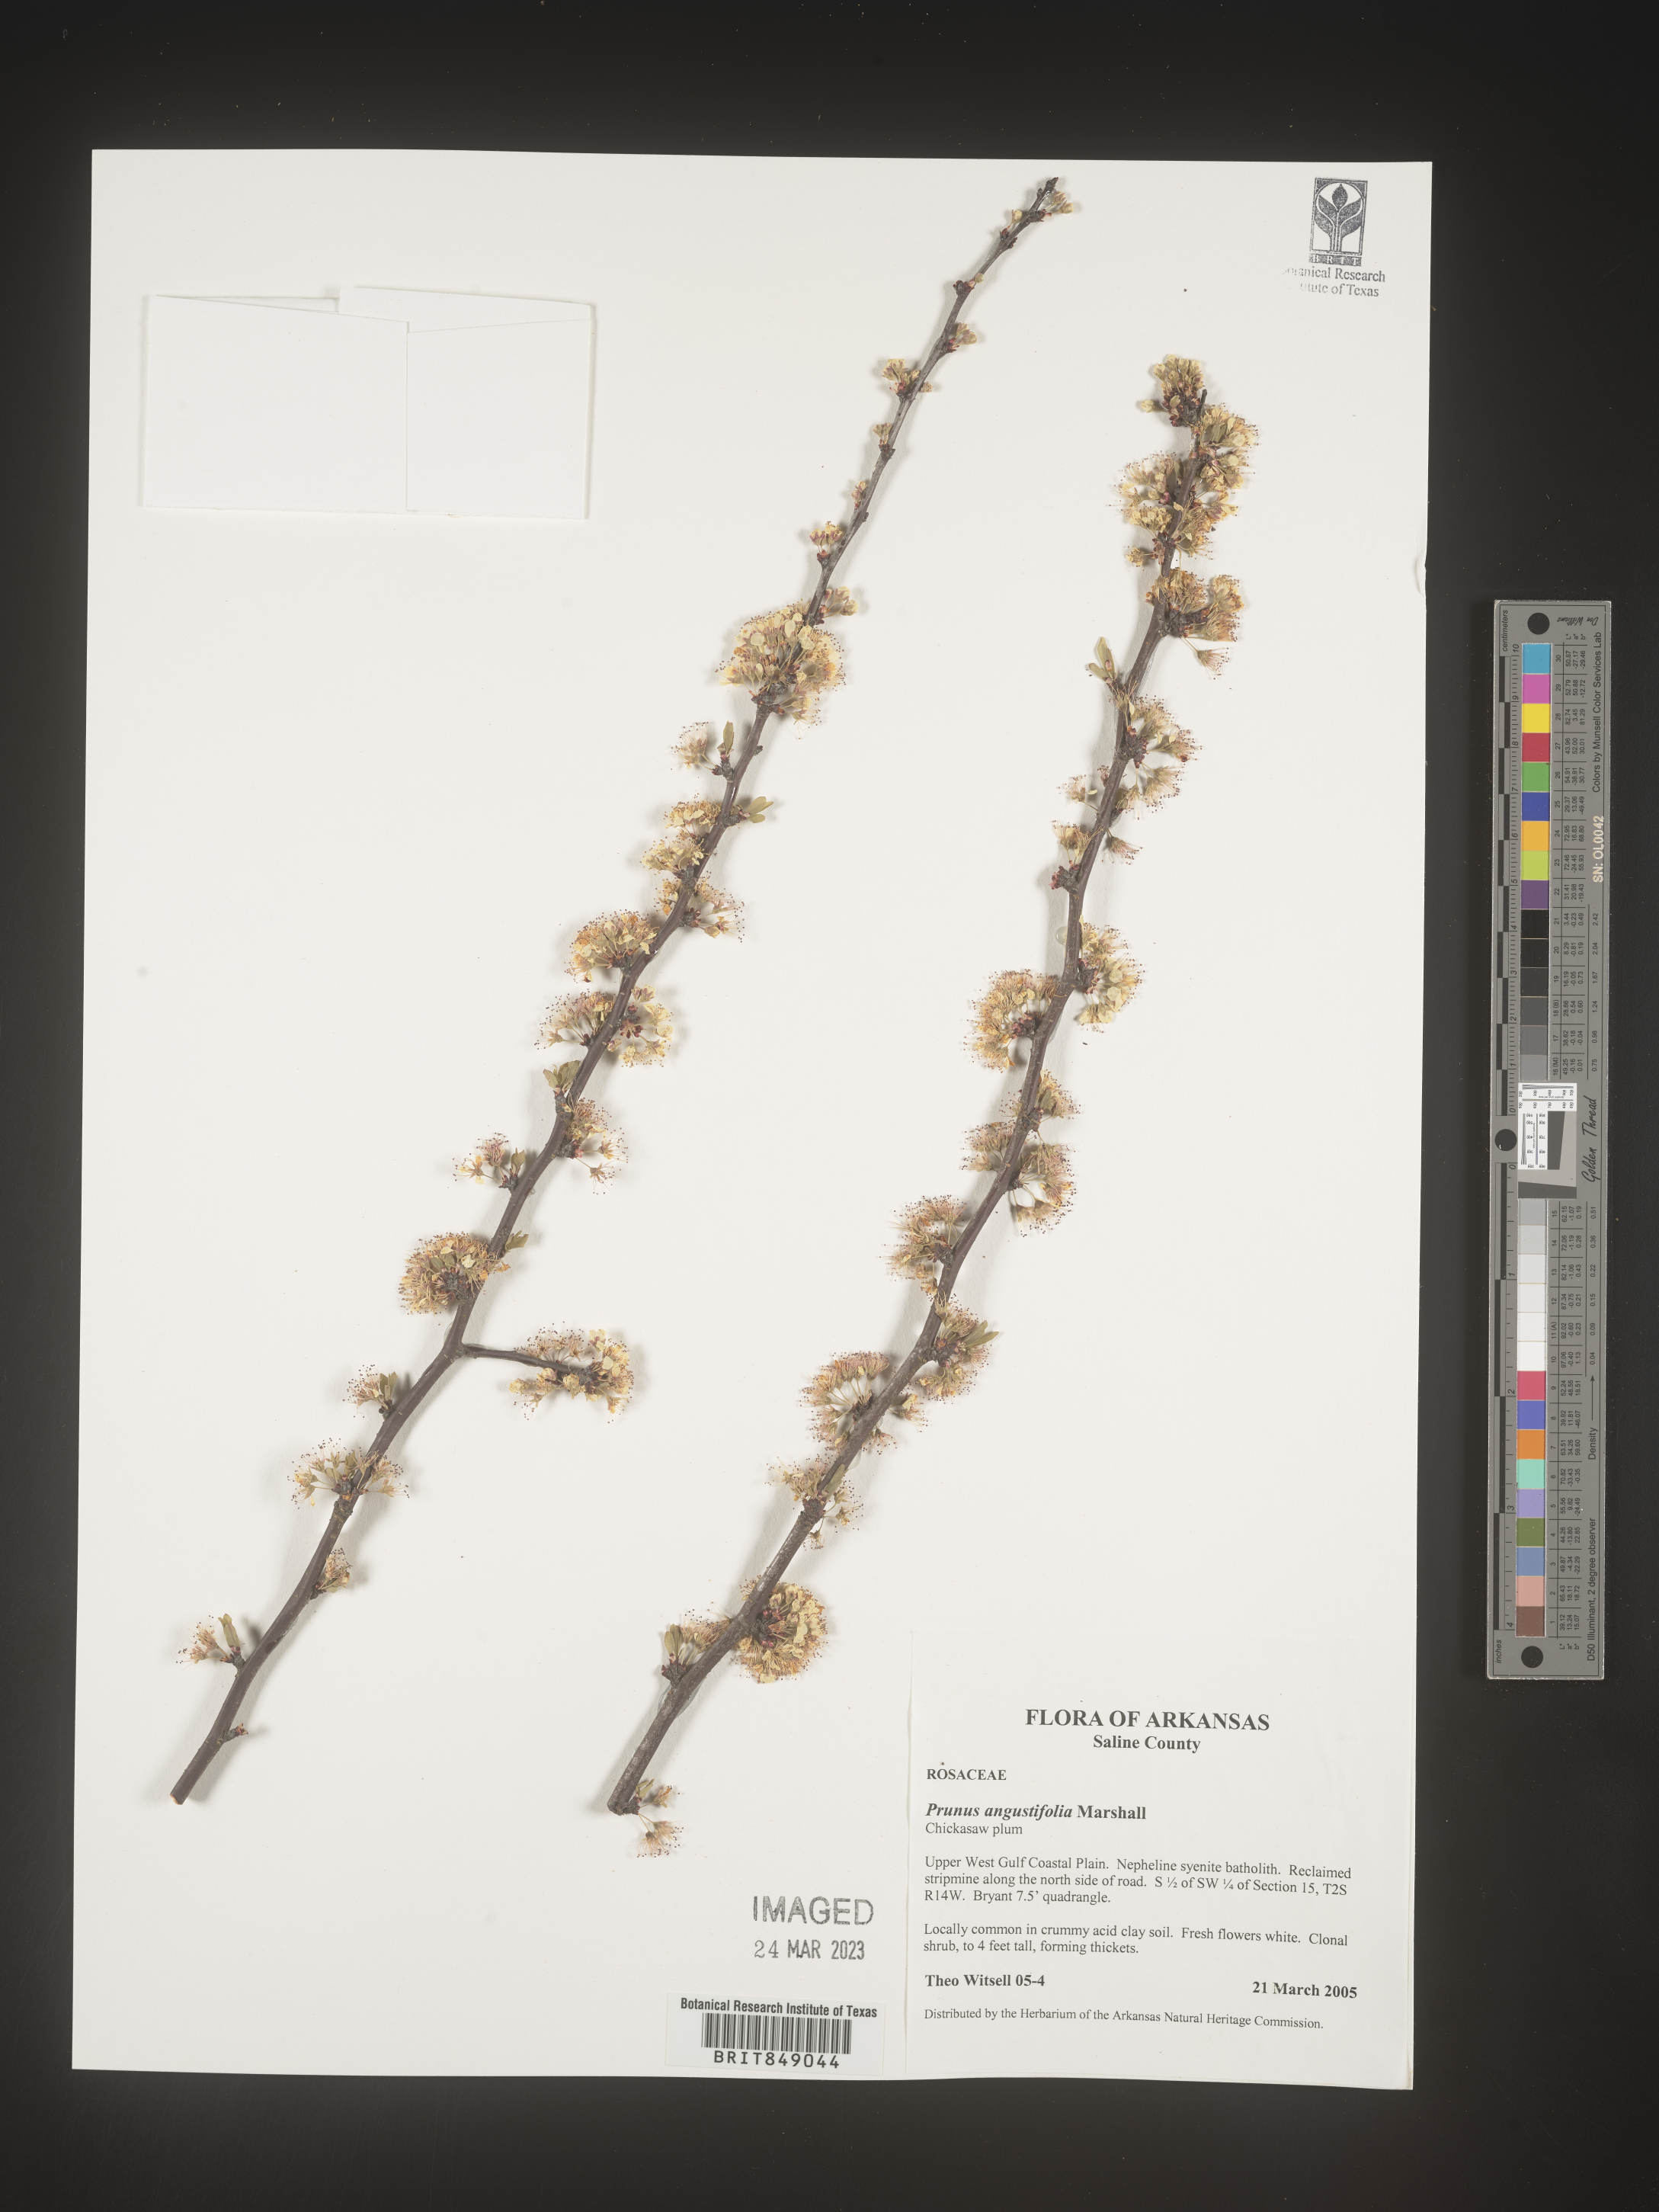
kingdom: Plantae
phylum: Tracheophyta
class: Magnoliopsida
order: Rosales
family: Rosaceae
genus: Prunus
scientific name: Prunus angustifolia
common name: Cherokee plum
